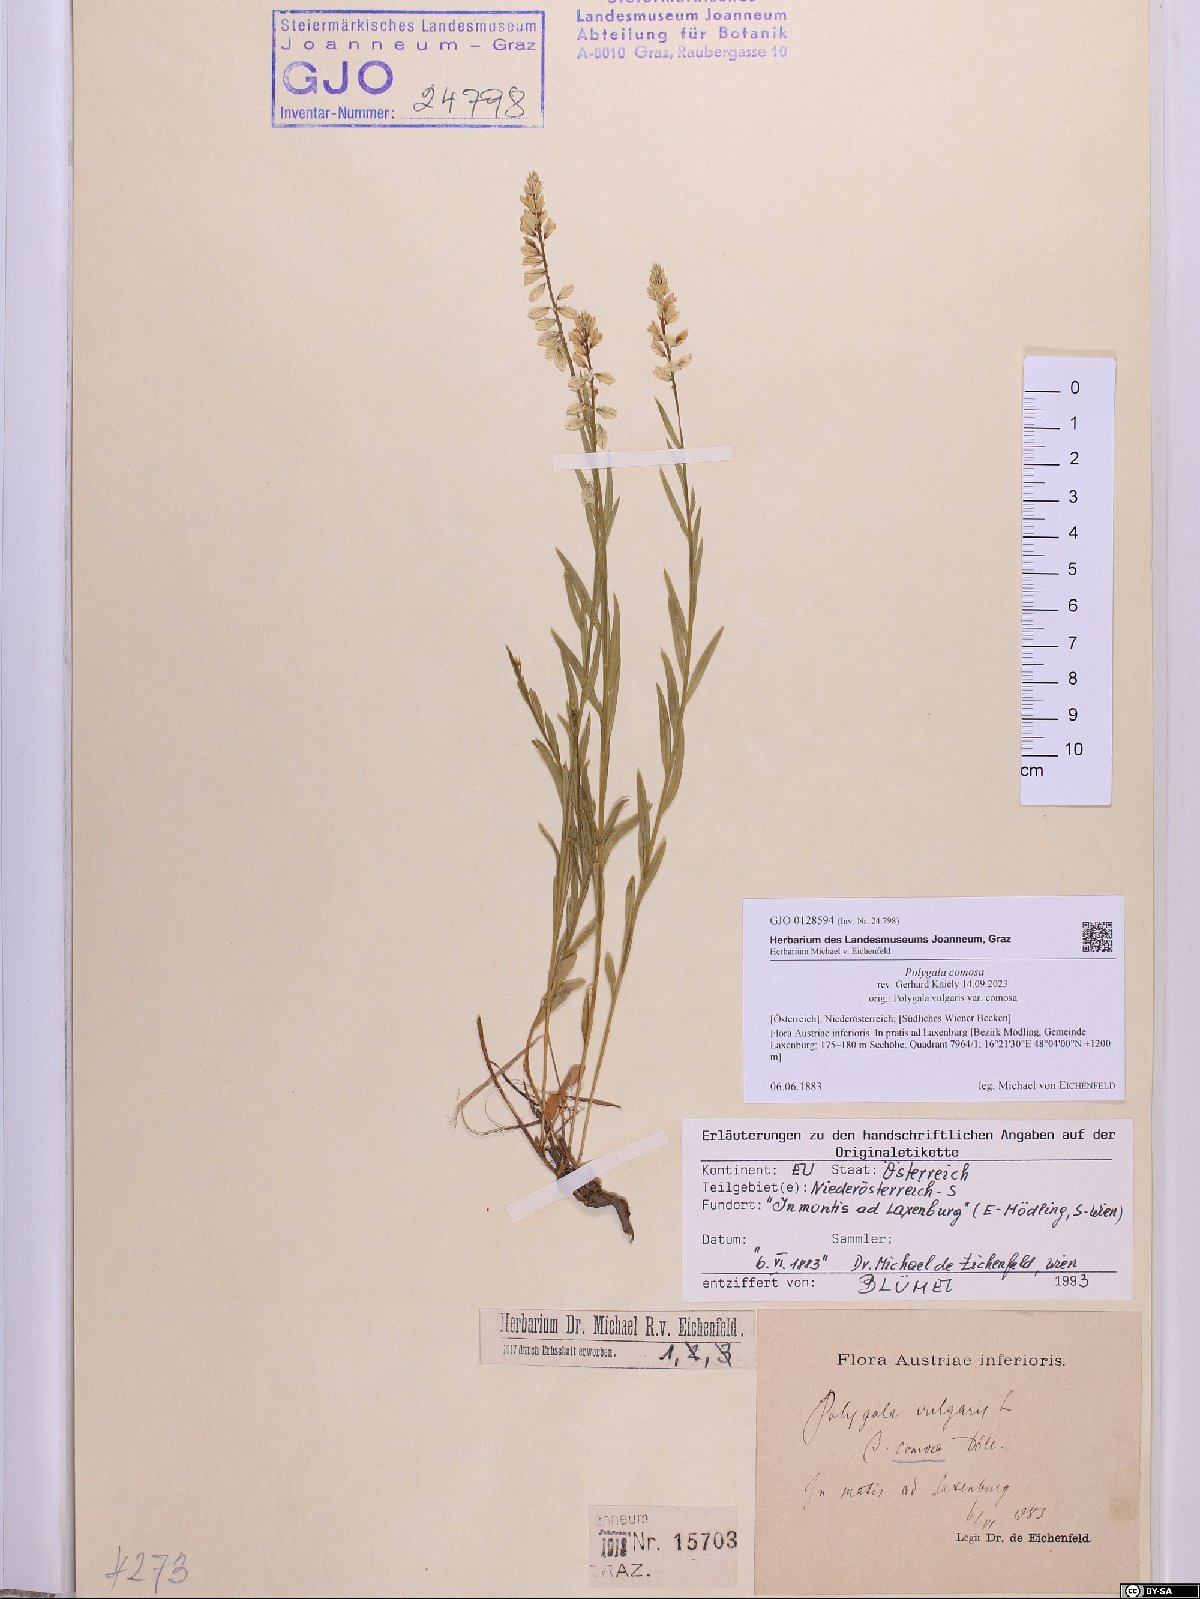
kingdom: Plantae
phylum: Tracheophyta
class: Magnoliopsida
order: Fabales
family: Polygalaceae
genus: Polygala
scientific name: Polygala comosa
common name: Tufted milkwort
